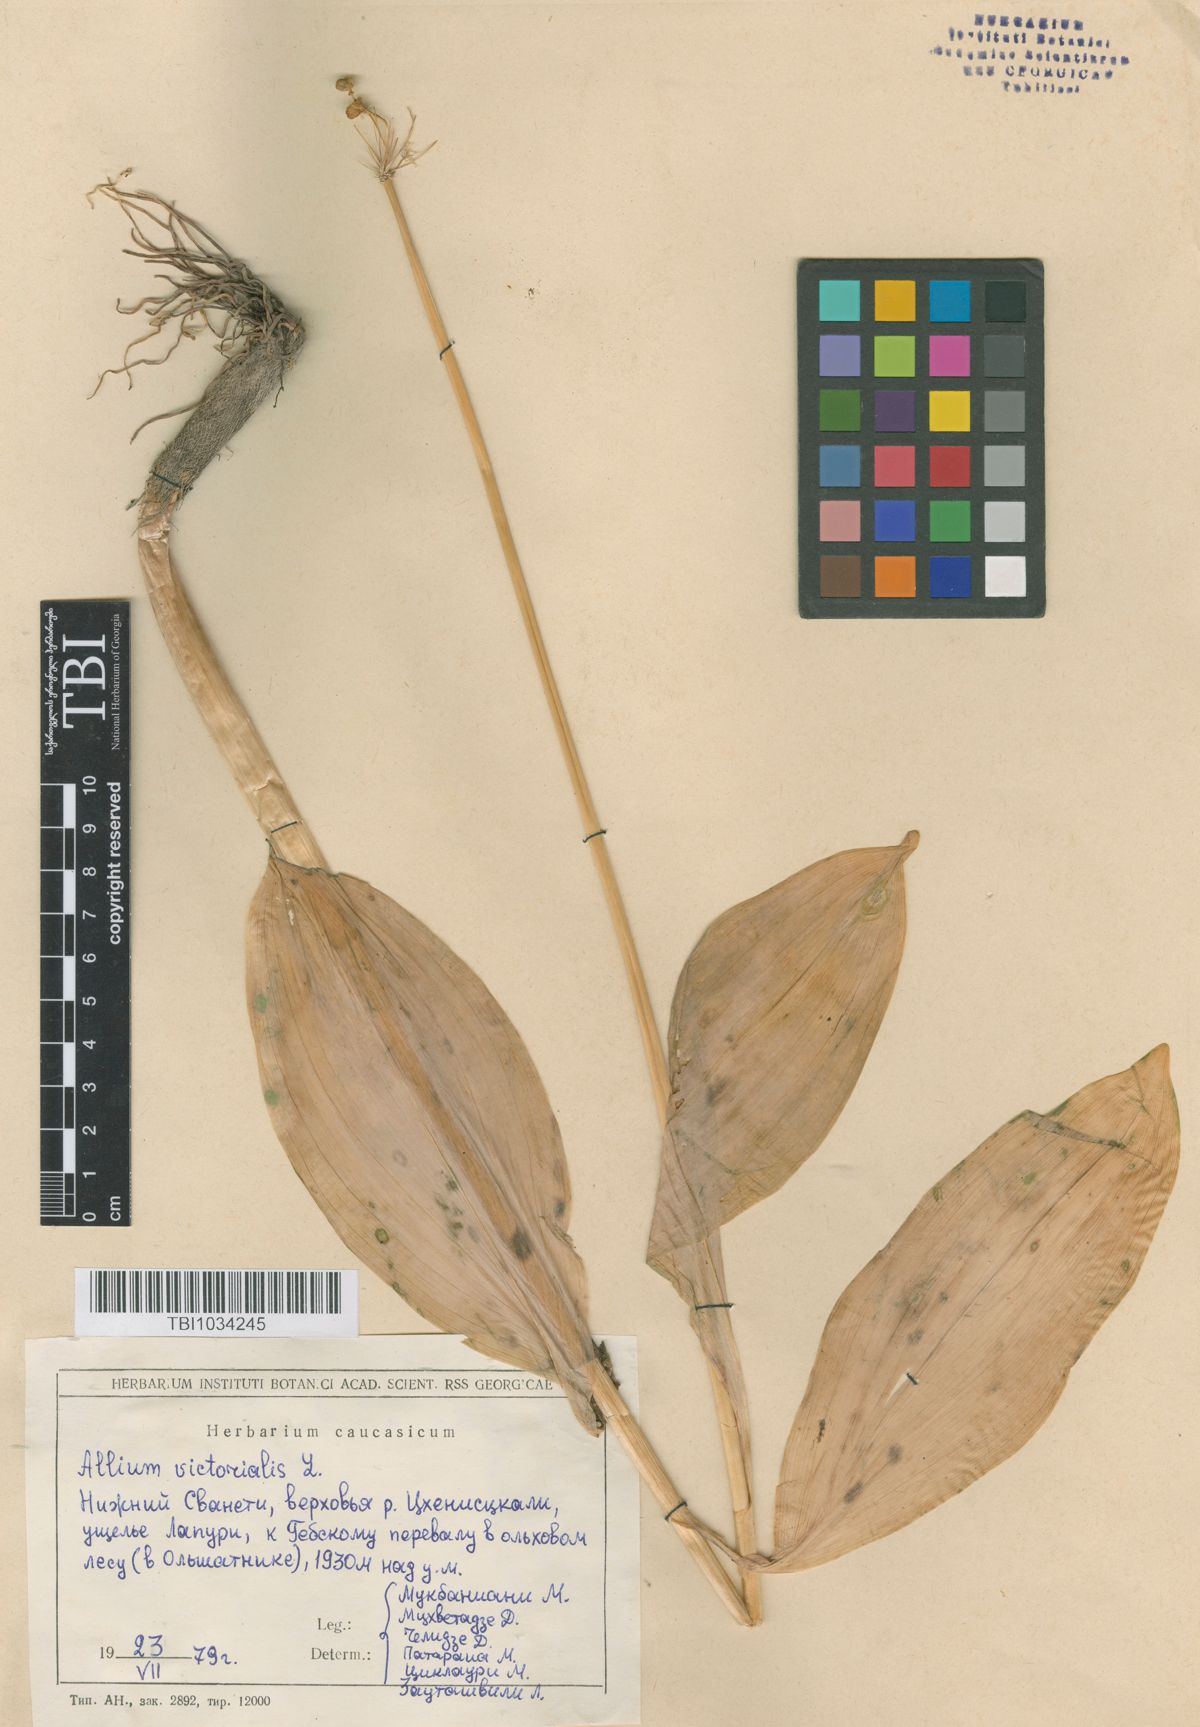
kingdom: Plantae
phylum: Tracheophyta
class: Liliopsida
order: Asparagales
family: Amaryllidaceae
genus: Allium
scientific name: Allium victorialis
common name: Alpine leek
